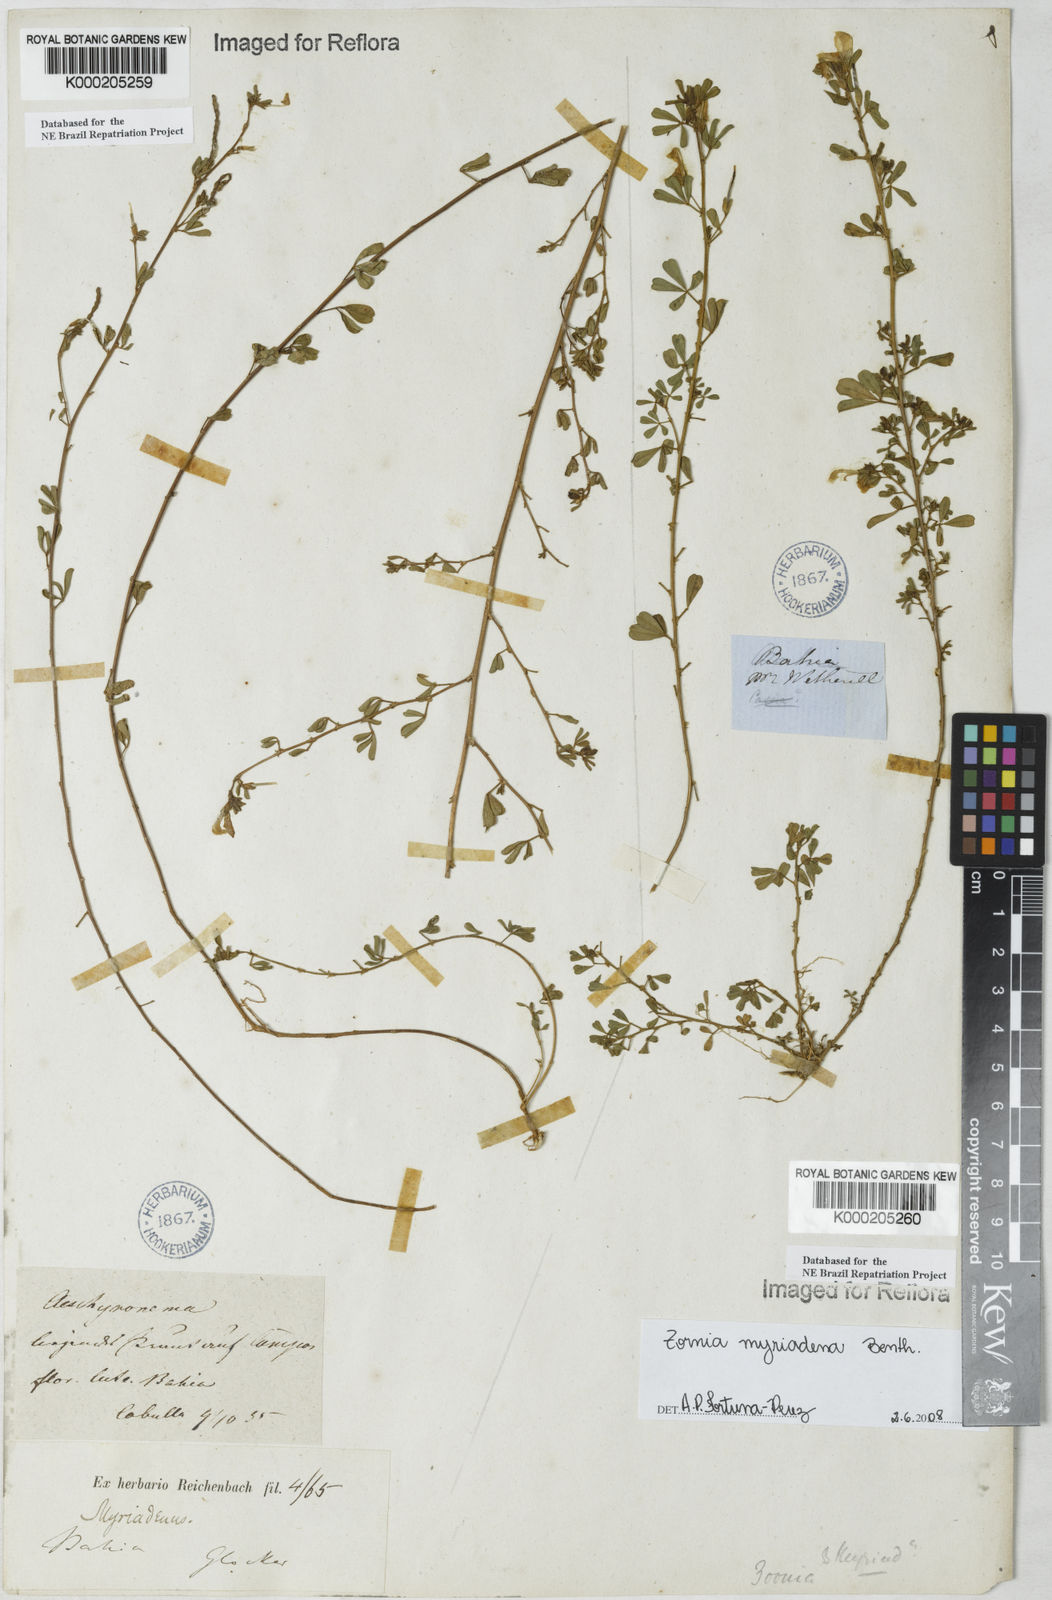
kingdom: Plantae
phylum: Tracheophyta
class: Magnoliopsida
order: Fabales
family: Fabaceae
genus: Zornia
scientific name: Zornia myriadena
